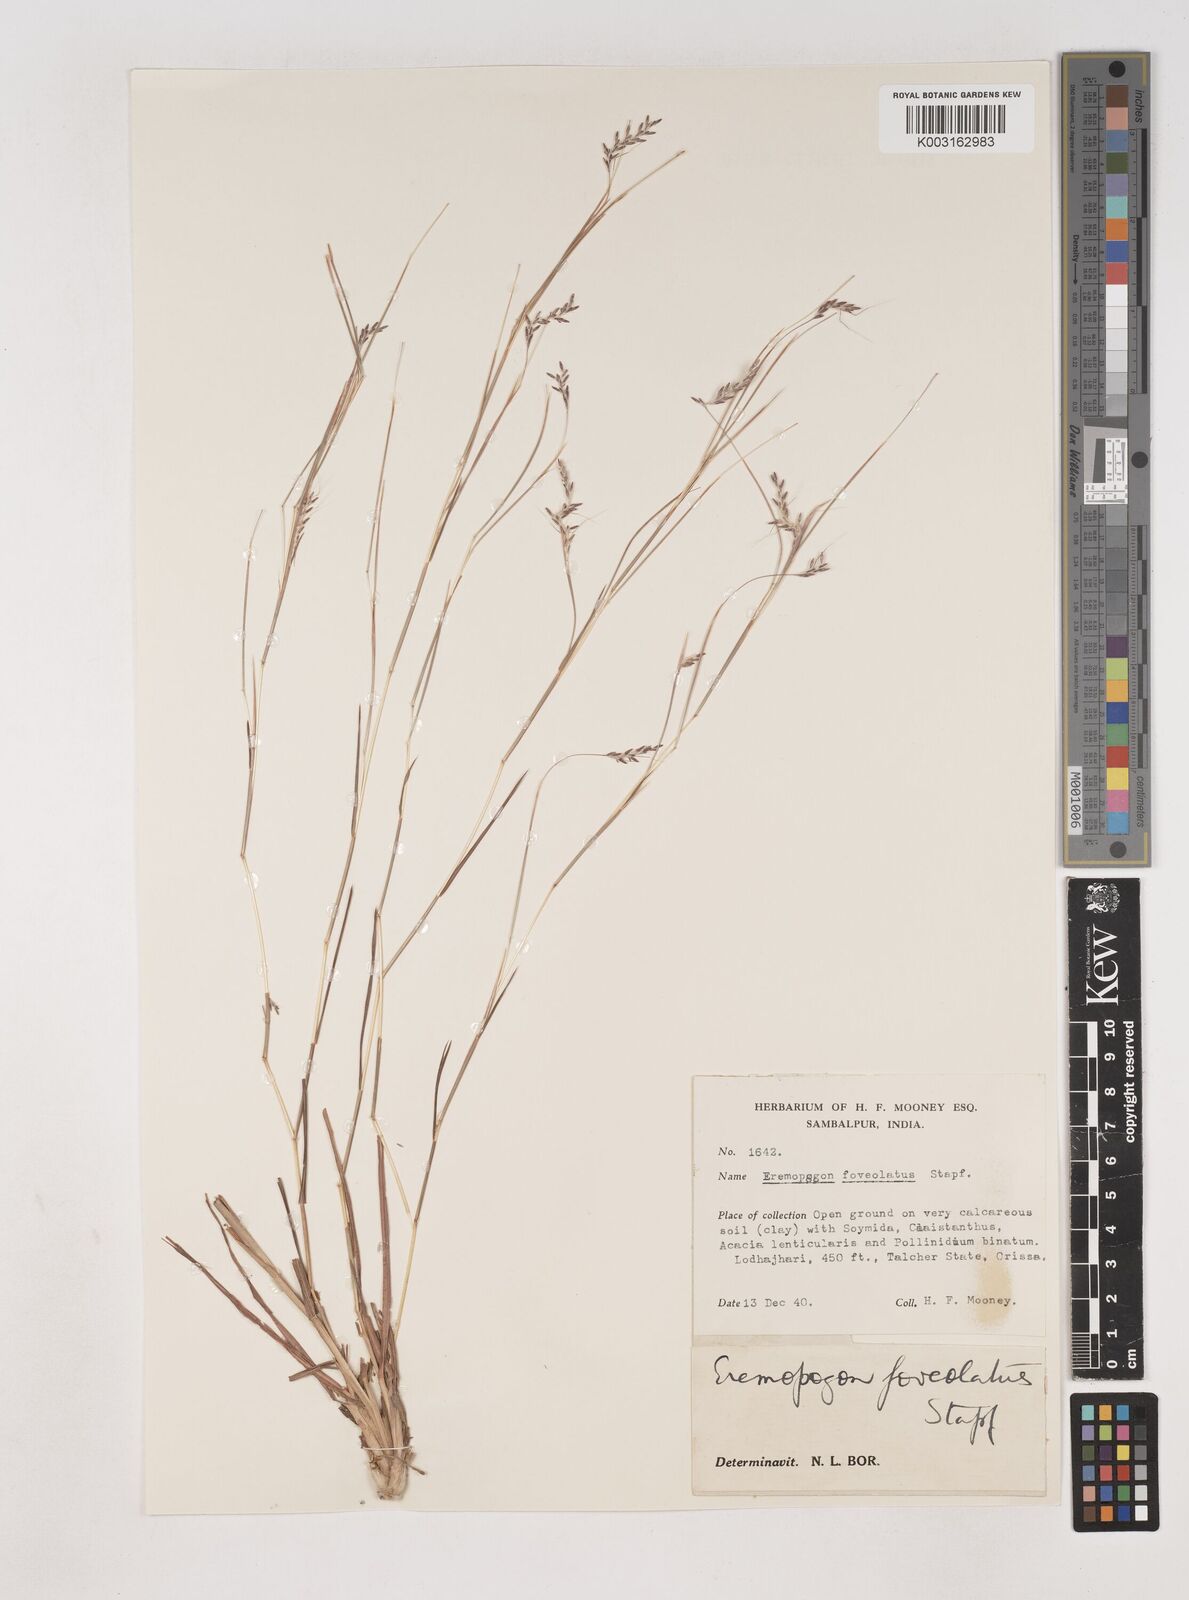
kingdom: Plantae
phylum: Tracheophyta
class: Liliopsida
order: Poales
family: Poaceae
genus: Dichanthium
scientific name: Dichanthium foveolatum
